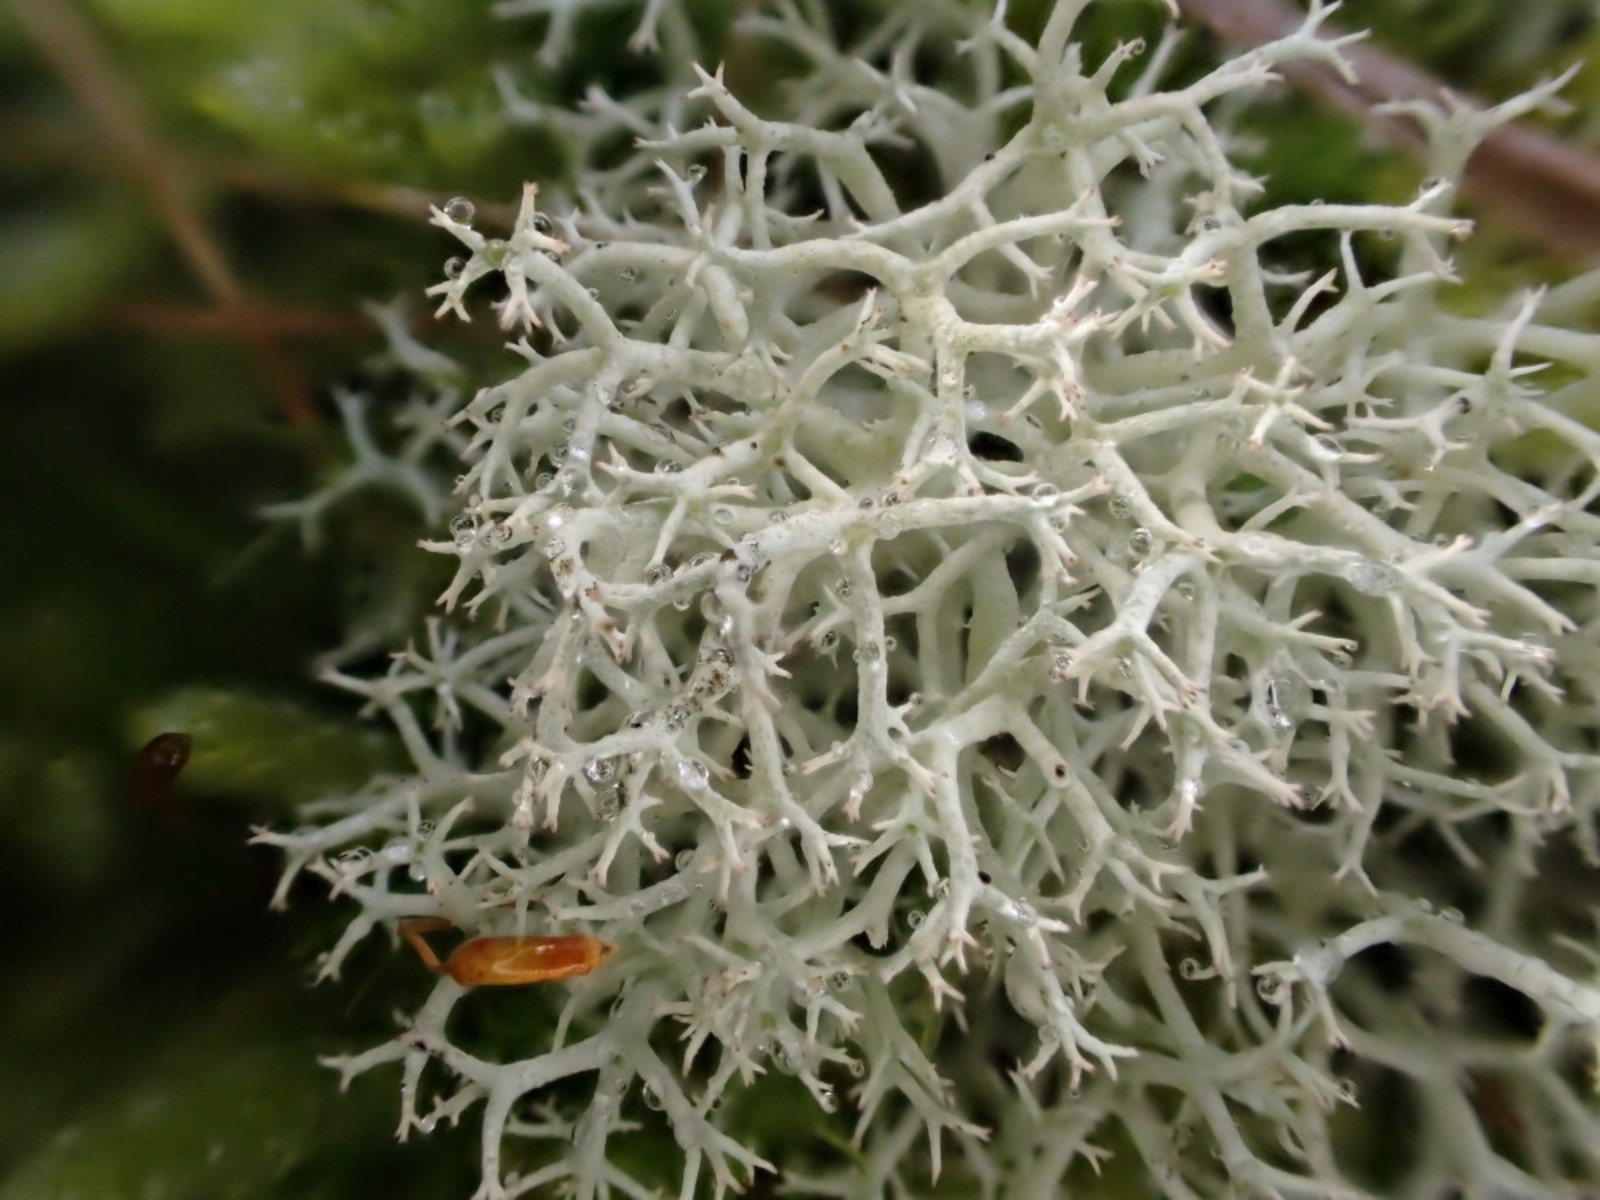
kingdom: Fungi
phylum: Ascomycota
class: Lecanoromycetes
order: Lecanorales
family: Cladoniaceae
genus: Cladonia
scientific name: Cladonia portentosa
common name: hede-rensdyrlav
